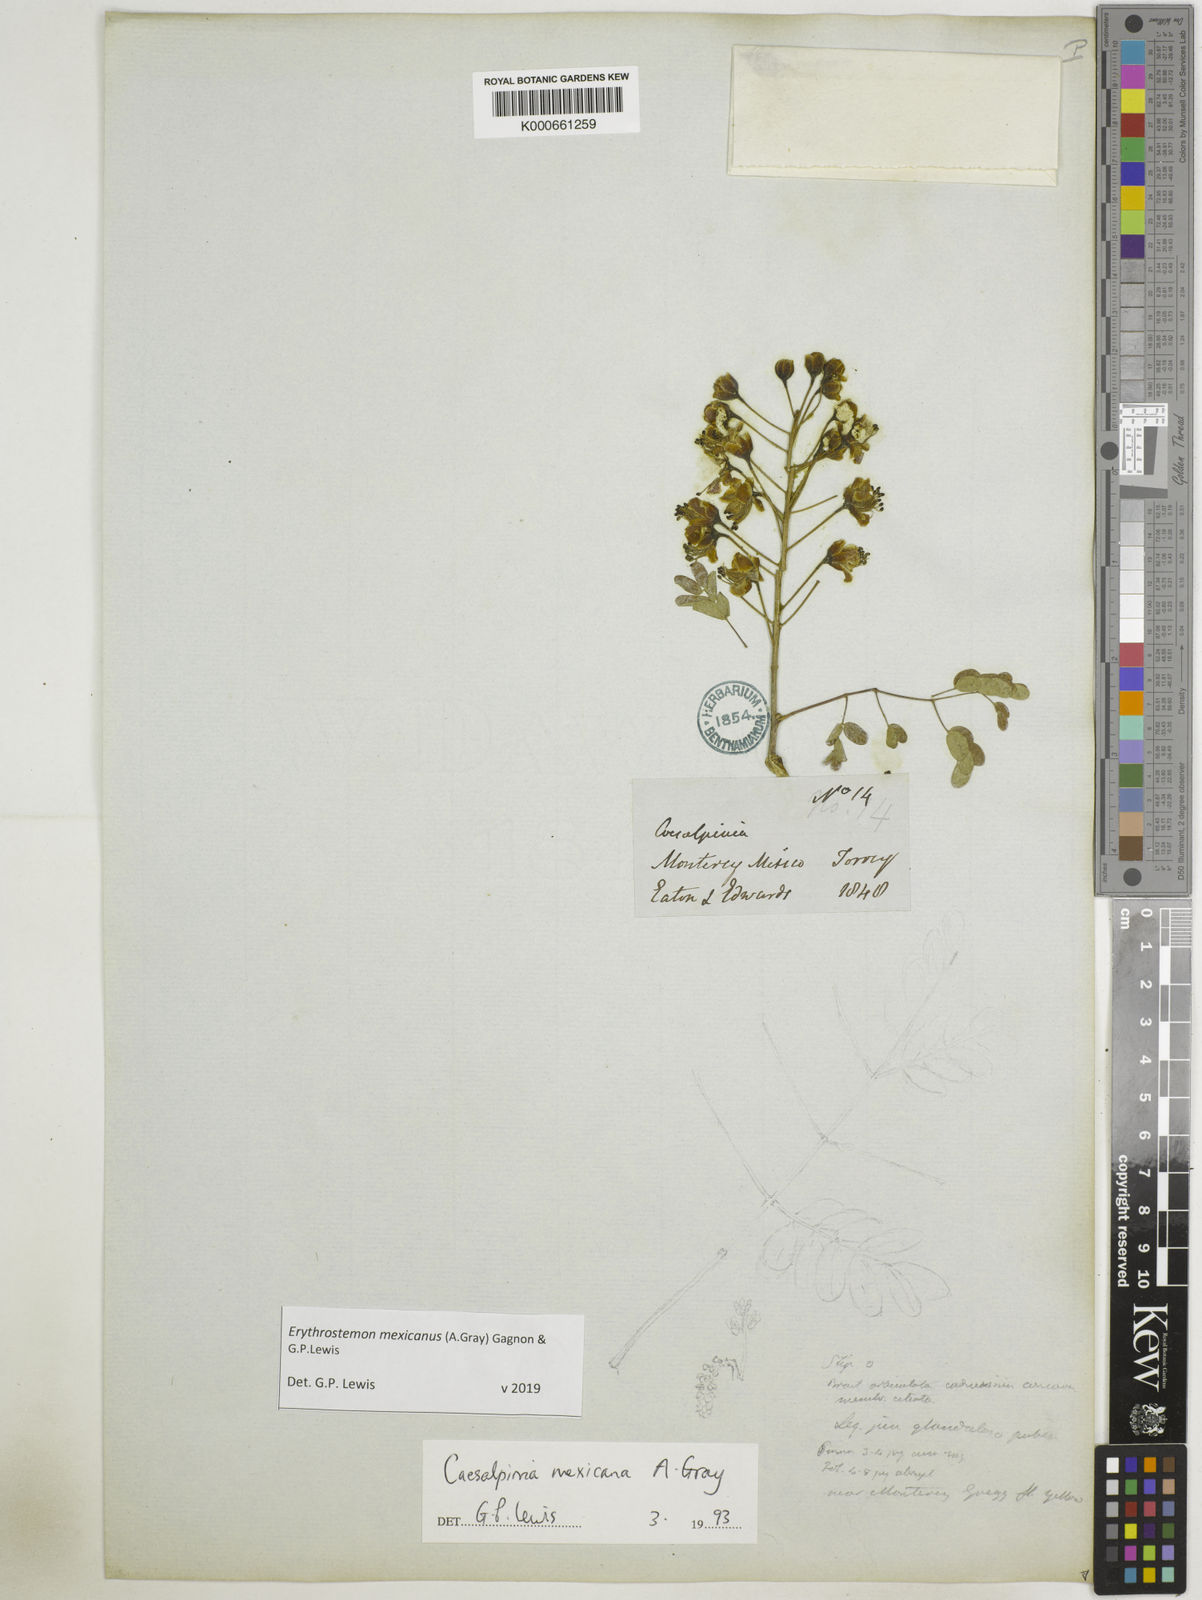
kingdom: Plantae
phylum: Tracheophyta
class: Magnoliopsida
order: Fabales
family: Fabaceae
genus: Erythrostemon
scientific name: Erythrostemon mexicanus
